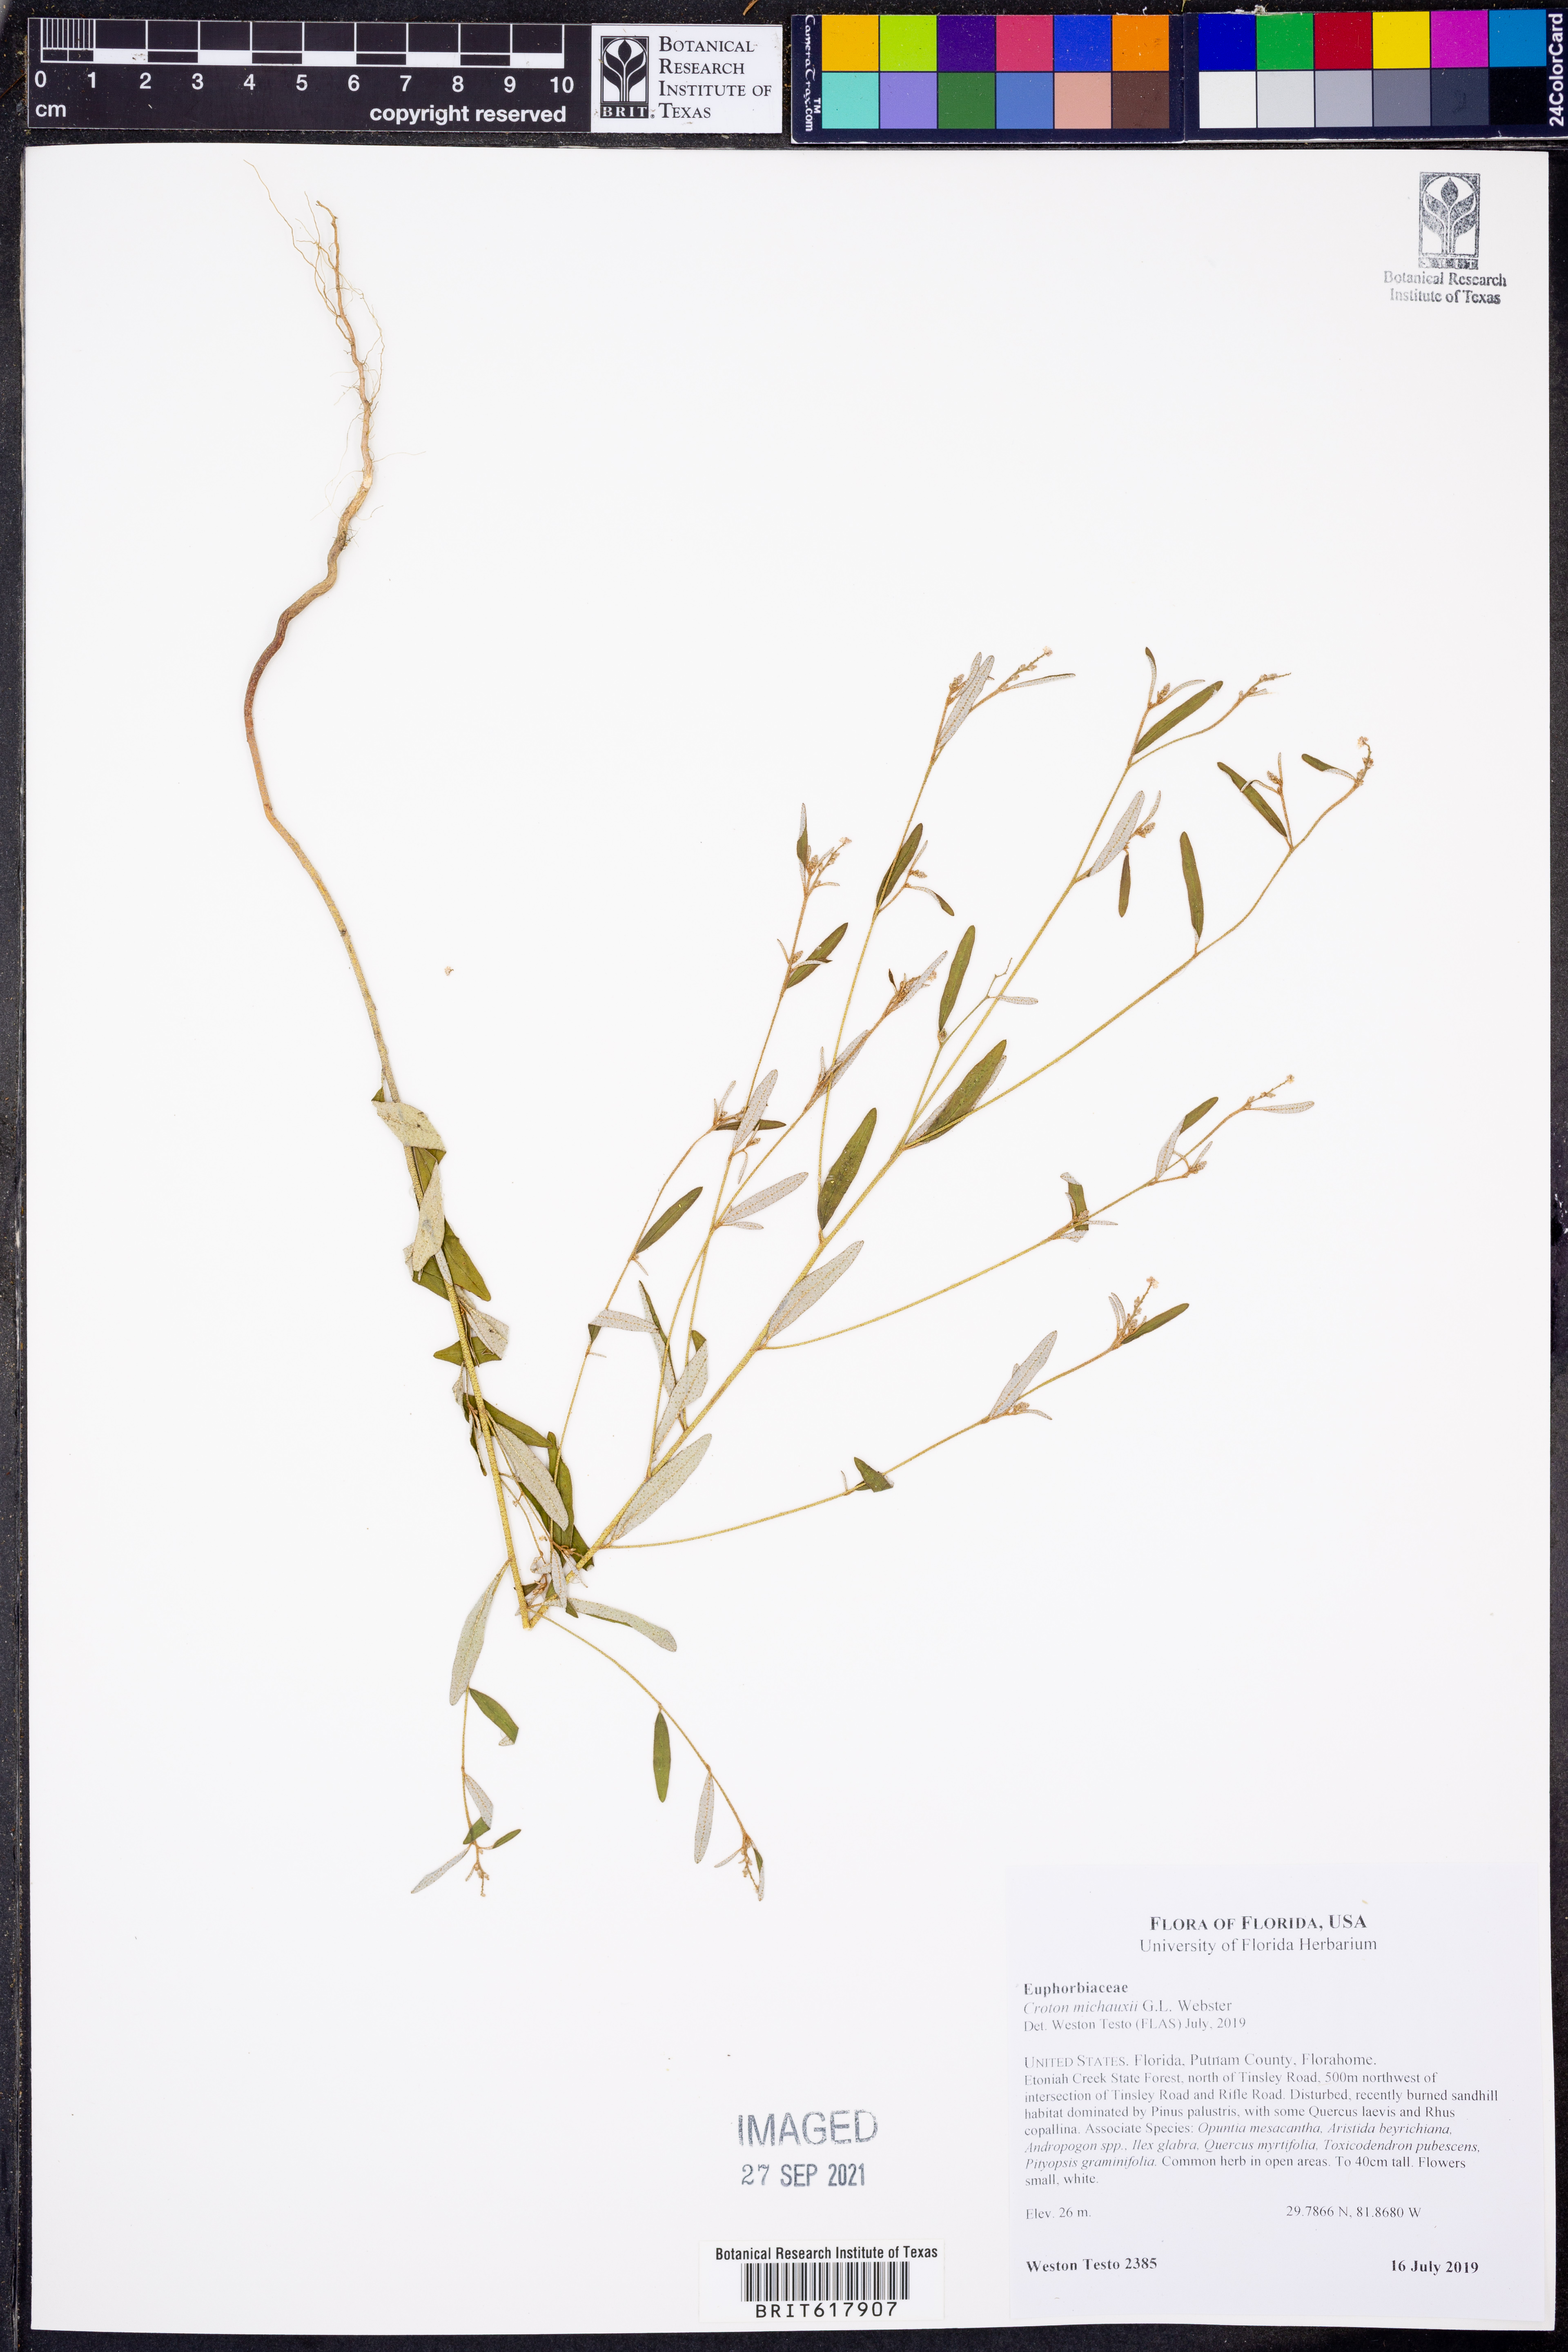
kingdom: Plantae
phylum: Tracheophyta
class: Magnoliopsida
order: Malpighiales
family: Euphorbiaceae
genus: Croton
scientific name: Croton michauxii
